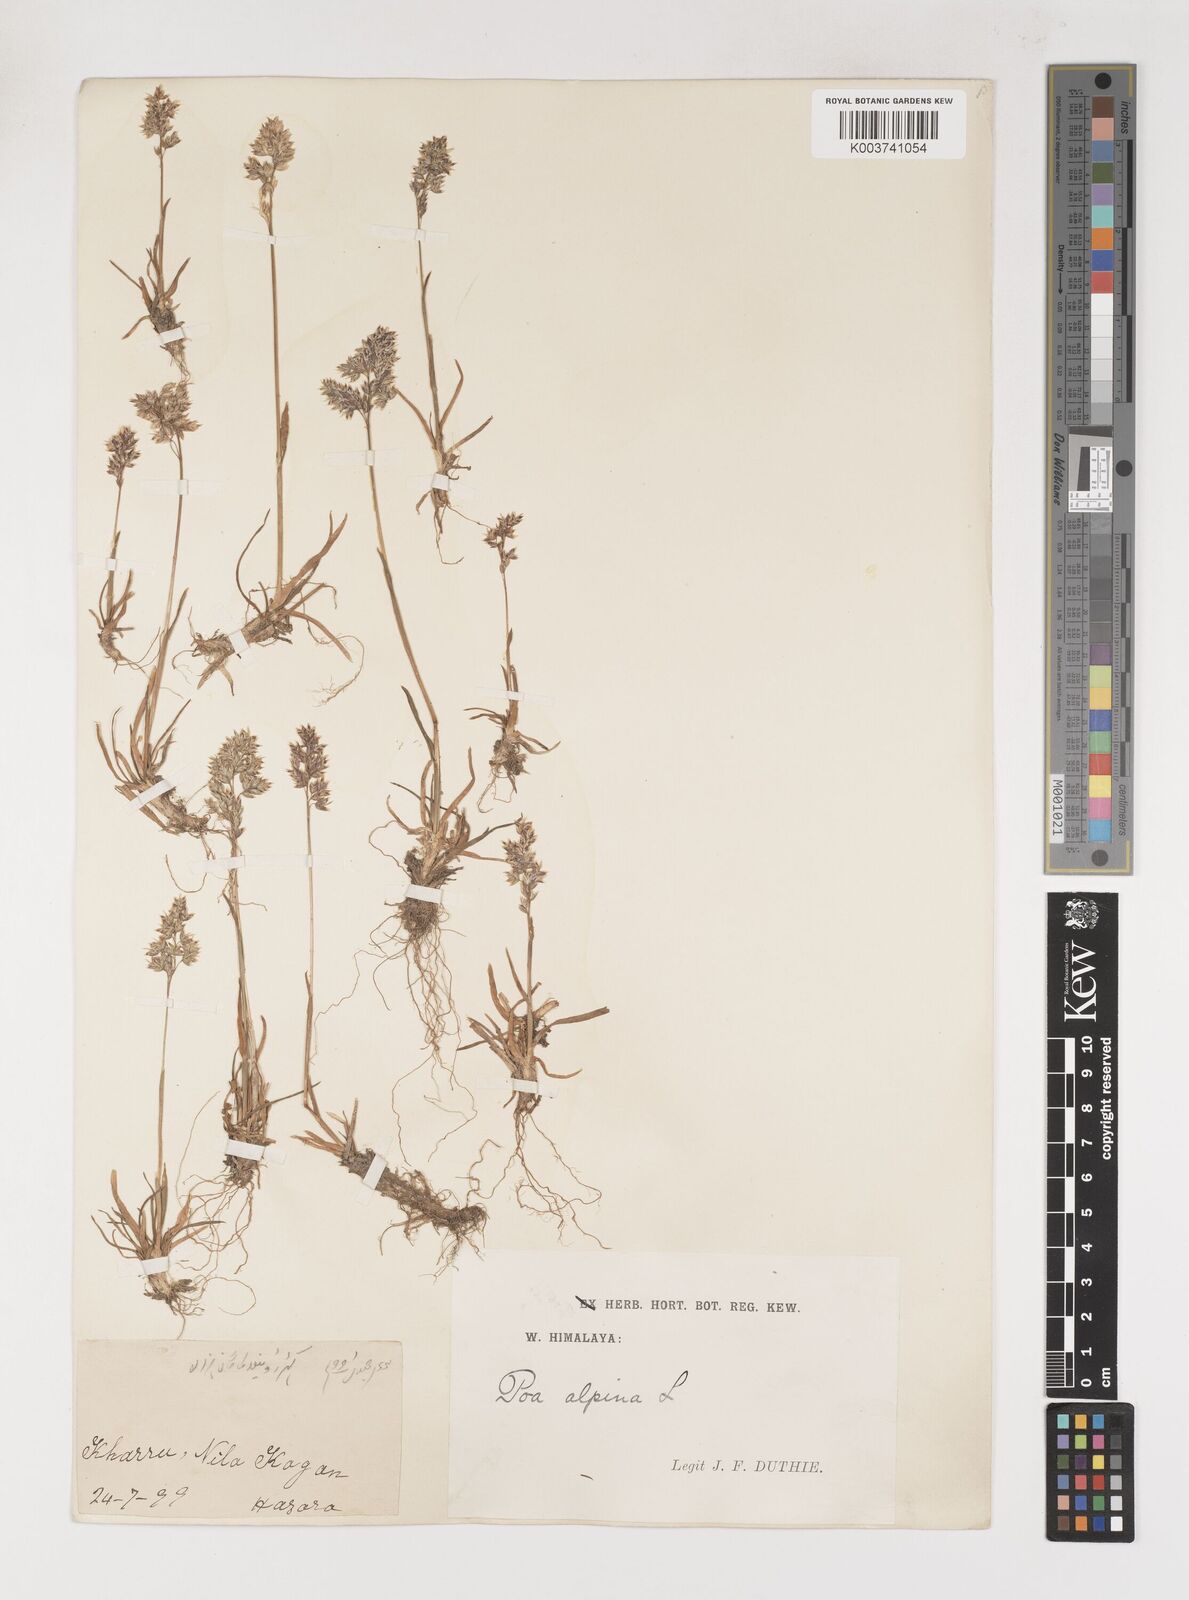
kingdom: Plantae
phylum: Tracheophyta
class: Liliopsida
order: Poales
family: Poaceae
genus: Poa
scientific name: Poa alpina
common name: Alpine bluegrass
